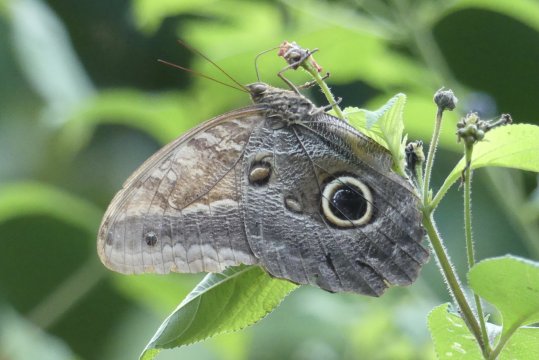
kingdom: Animalia
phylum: Arthropoda
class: Insecta
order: Lepidoptera
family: Nymphalidae
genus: Caligo
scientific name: Caligo telamonius
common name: Pale Owl-Butterfly
